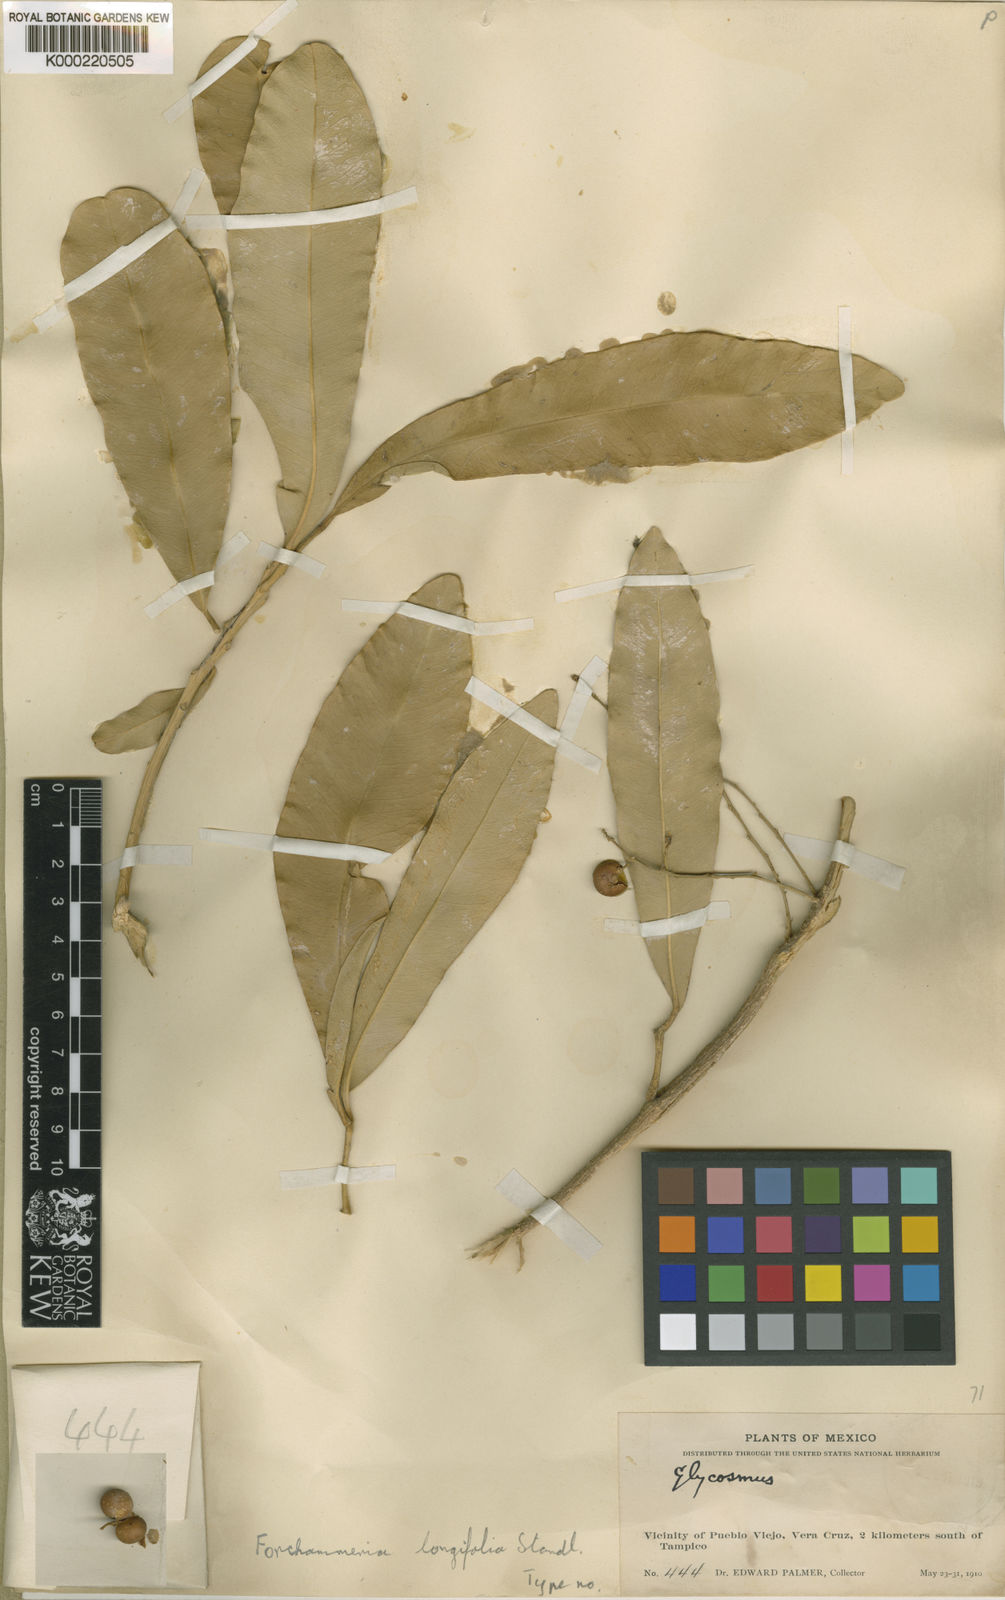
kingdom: Plantae
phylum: Tracheophyta
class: Magnoliopsida
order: Brassicales
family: Stixaceae
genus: Forchhammeria
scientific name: Forchhammeria longifolia
